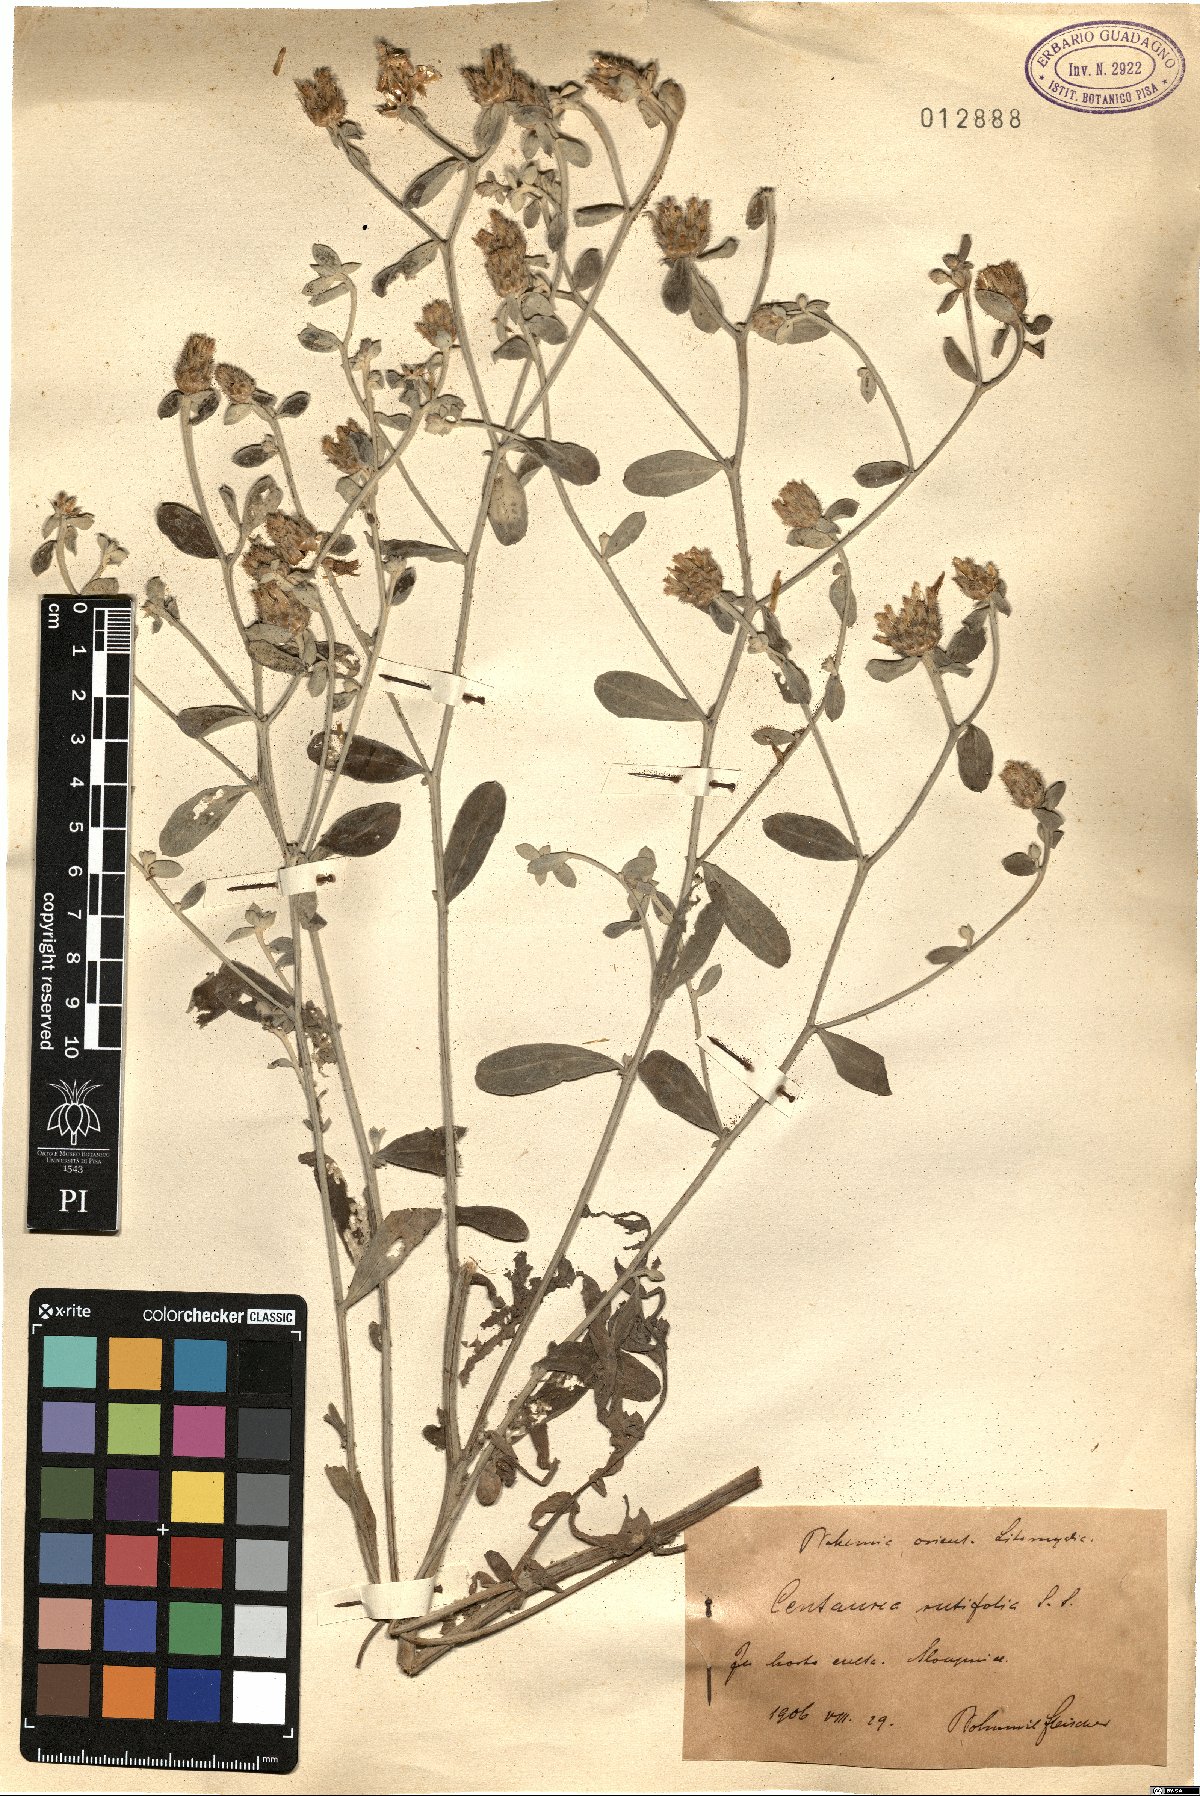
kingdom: Plantae
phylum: Tracheophyta
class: Magnoliopsida
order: Asterales
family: Asteraceae
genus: Centaurea
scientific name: Centaurea rutifolia
